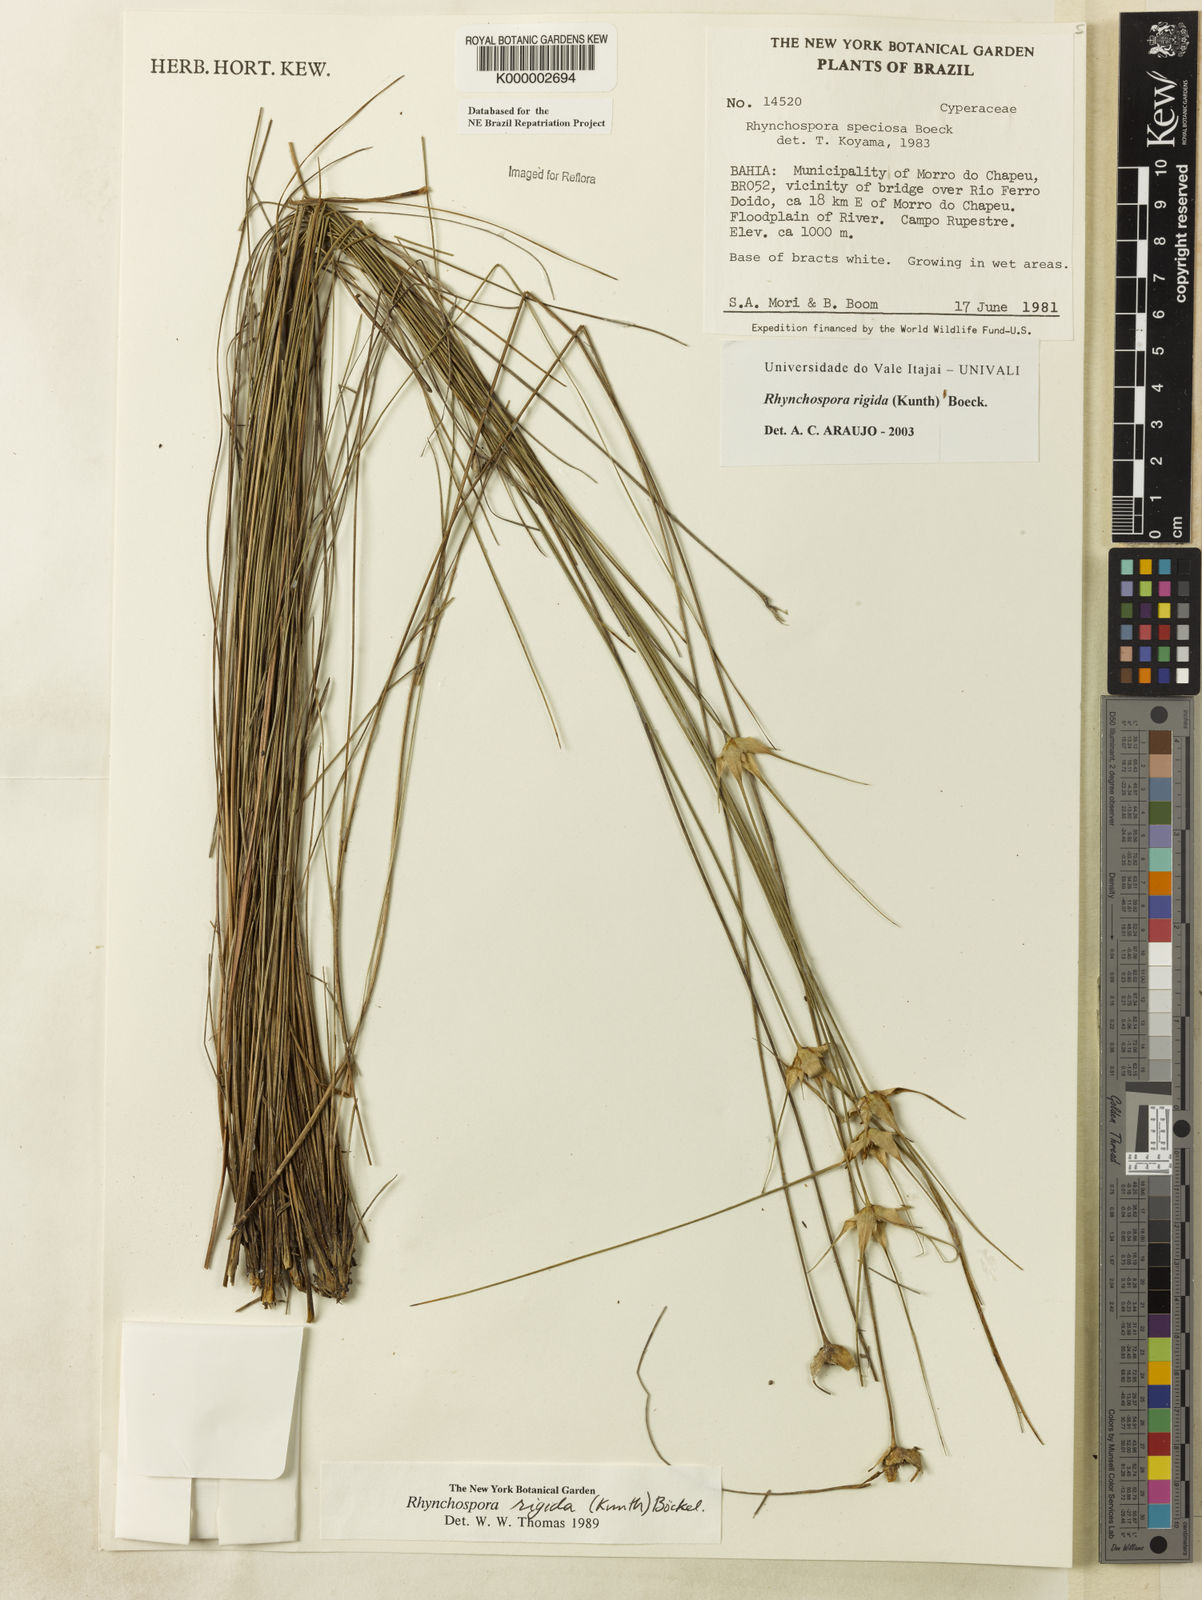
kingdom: Plantae
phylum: Tracheophyta
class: Liliopsida
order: Poales
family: Cyperaceae
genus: Rhynchospora
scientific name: Rhynchospora consanguinea
